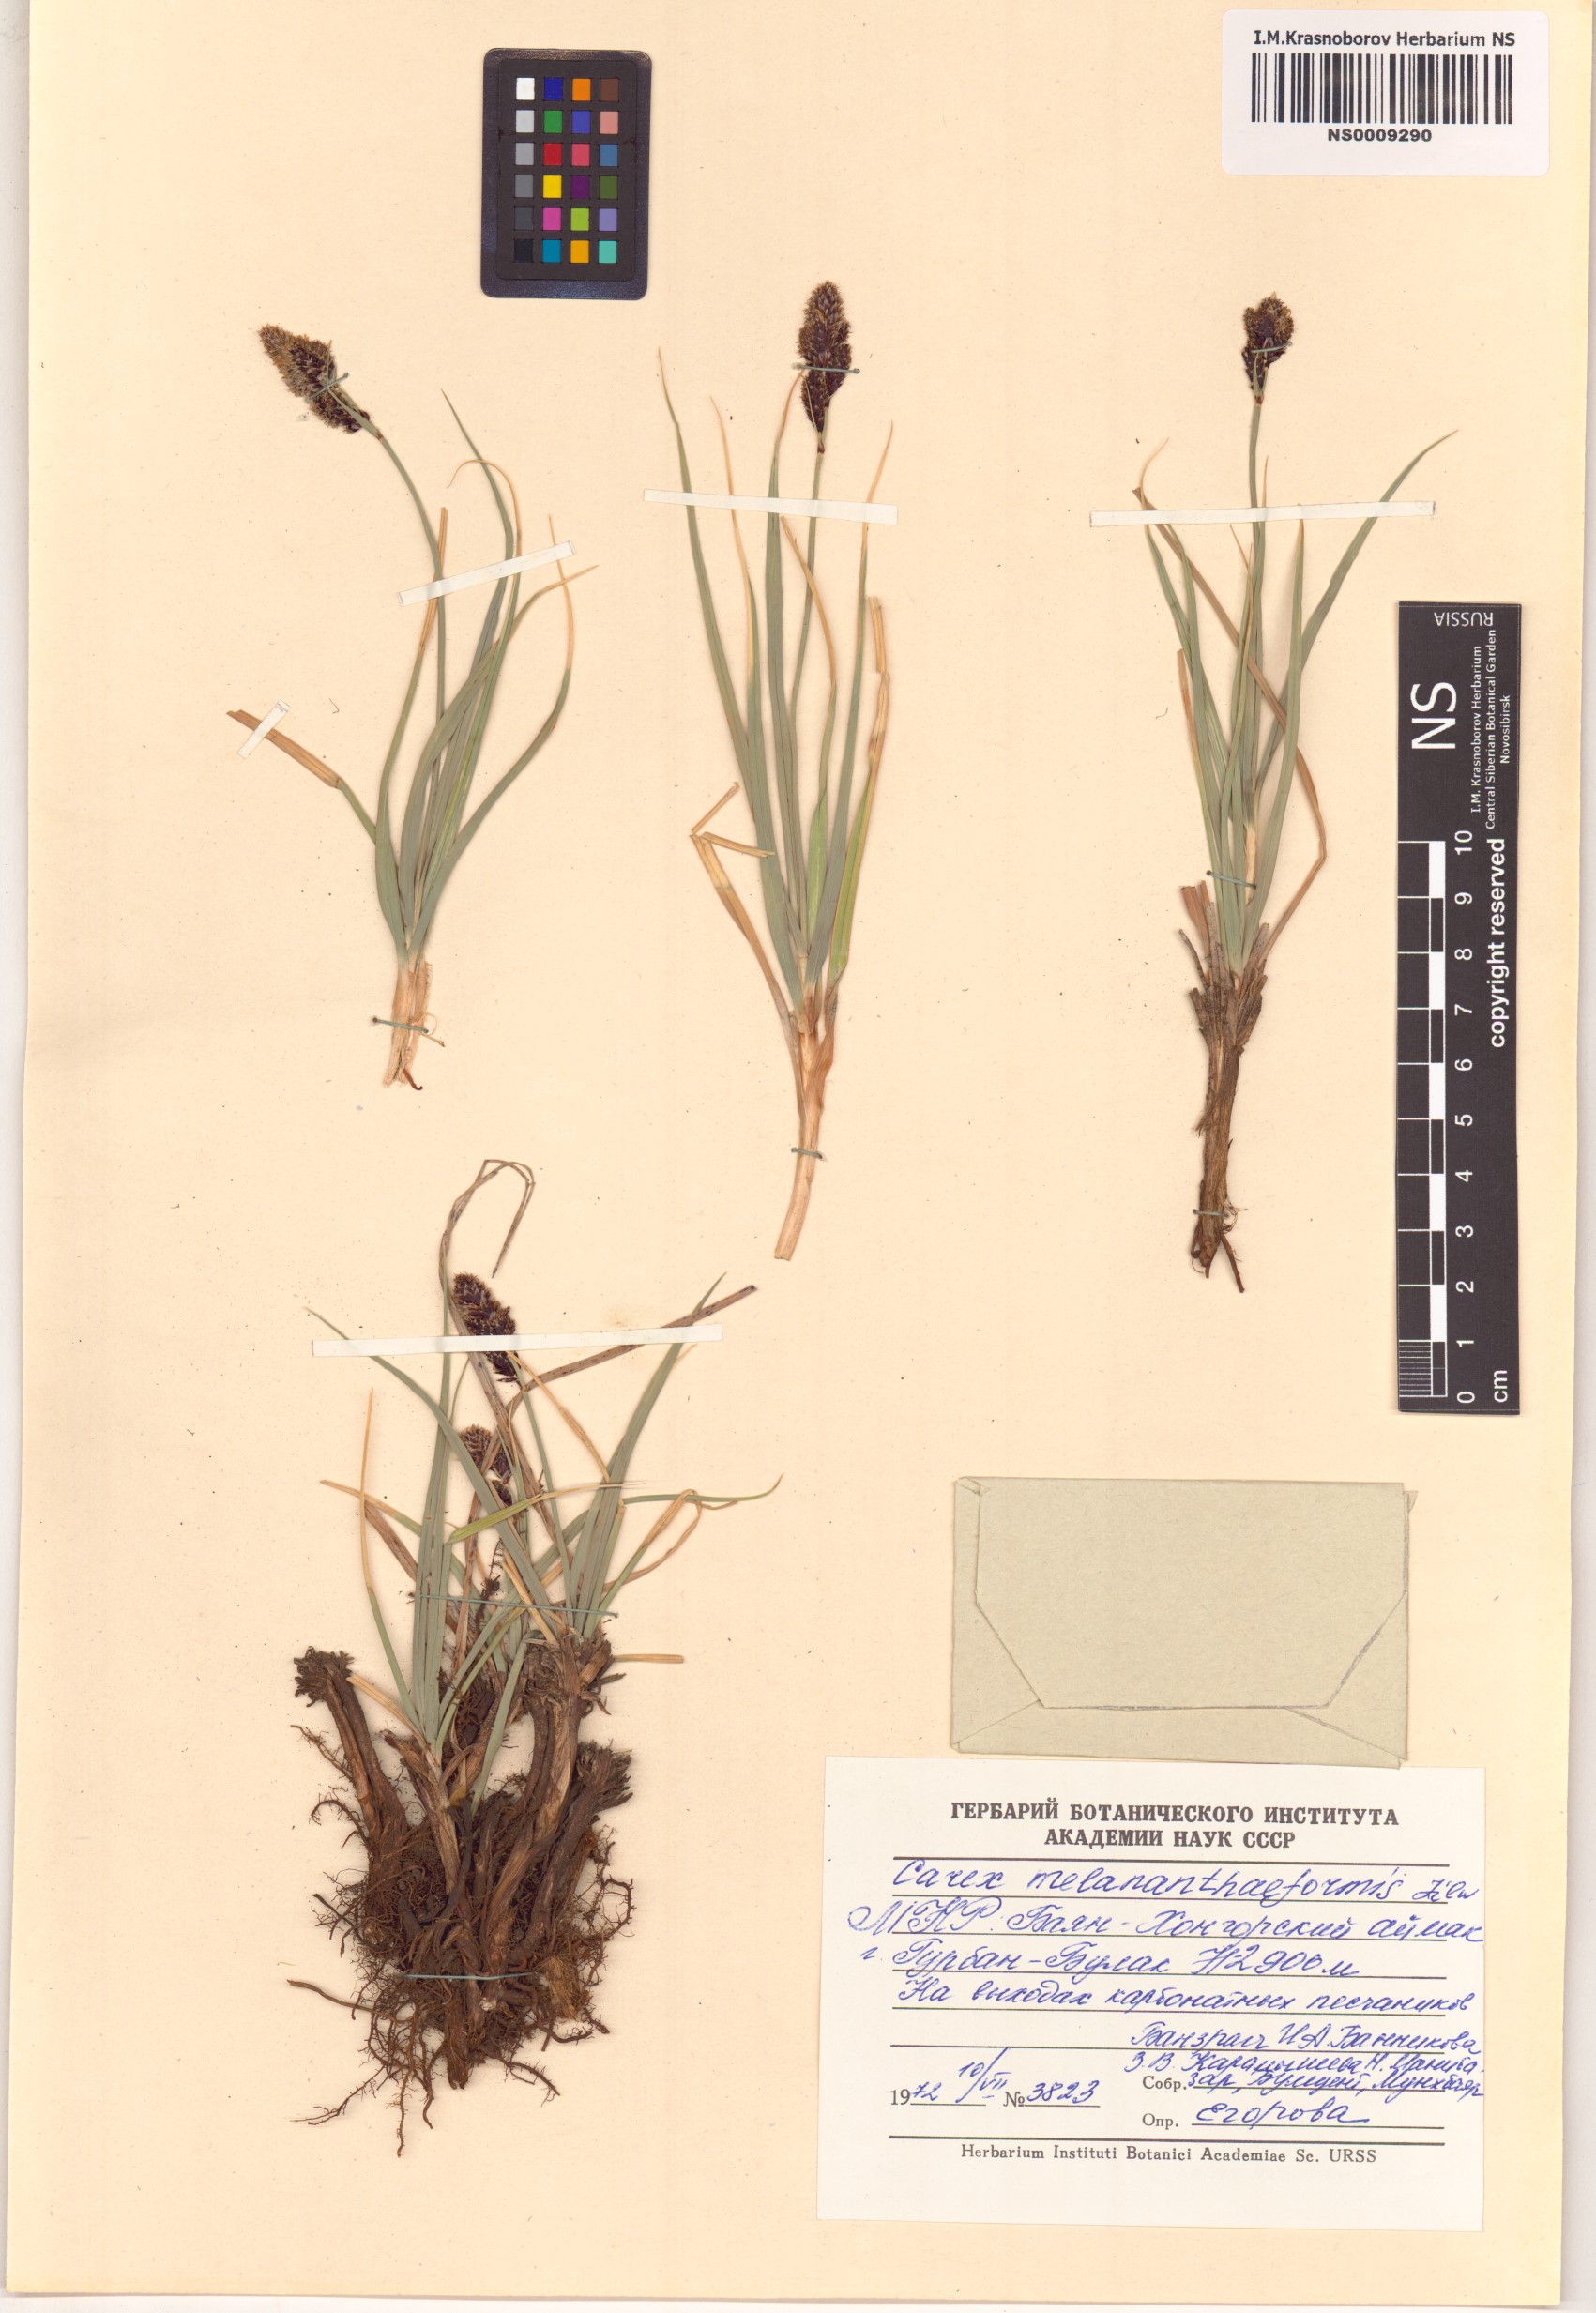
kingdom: Plantae
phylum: Tracheophyta
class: Liliopsida
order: Poales
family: Cyperaceae
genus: Carex
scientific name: Carex melananthiformis
